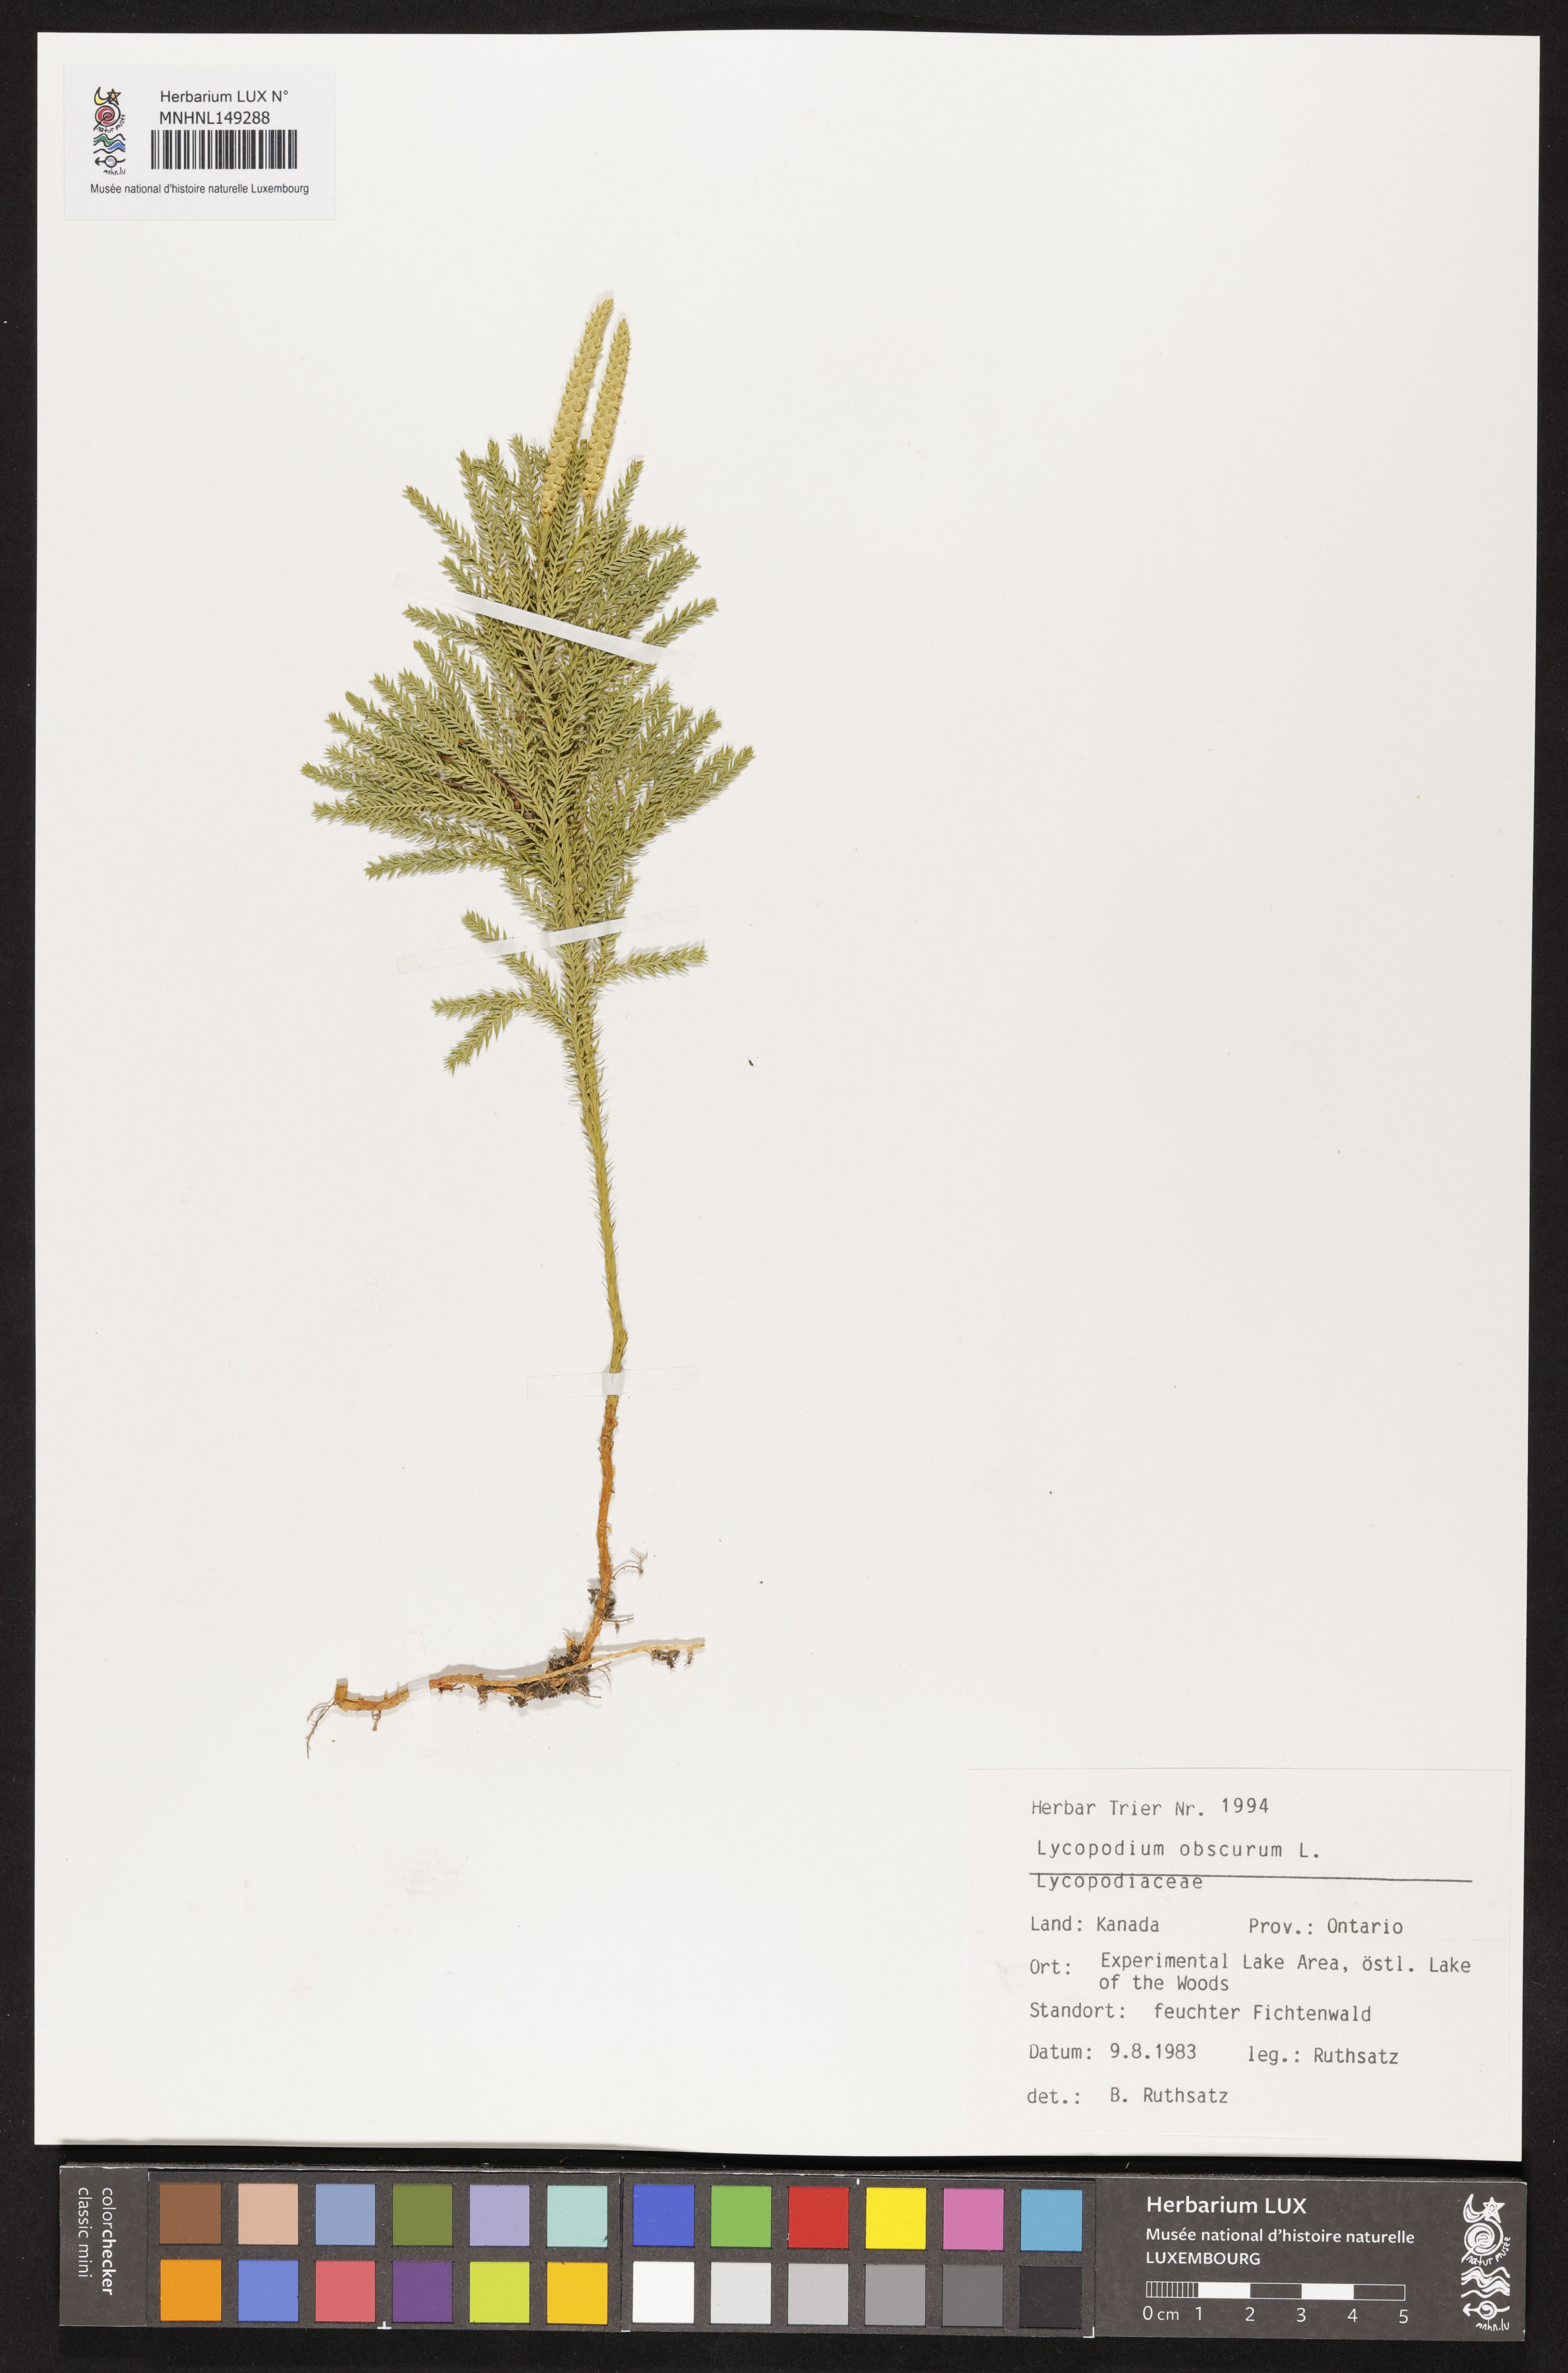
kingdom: Plantae
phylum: Tracheophyta
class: Lycopodiopsida
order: Lycopodiales
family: Lycopodiaceae
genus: Dendrolycopodium
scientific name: Dendrolycopodium obscurum
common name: Common ground-pine
